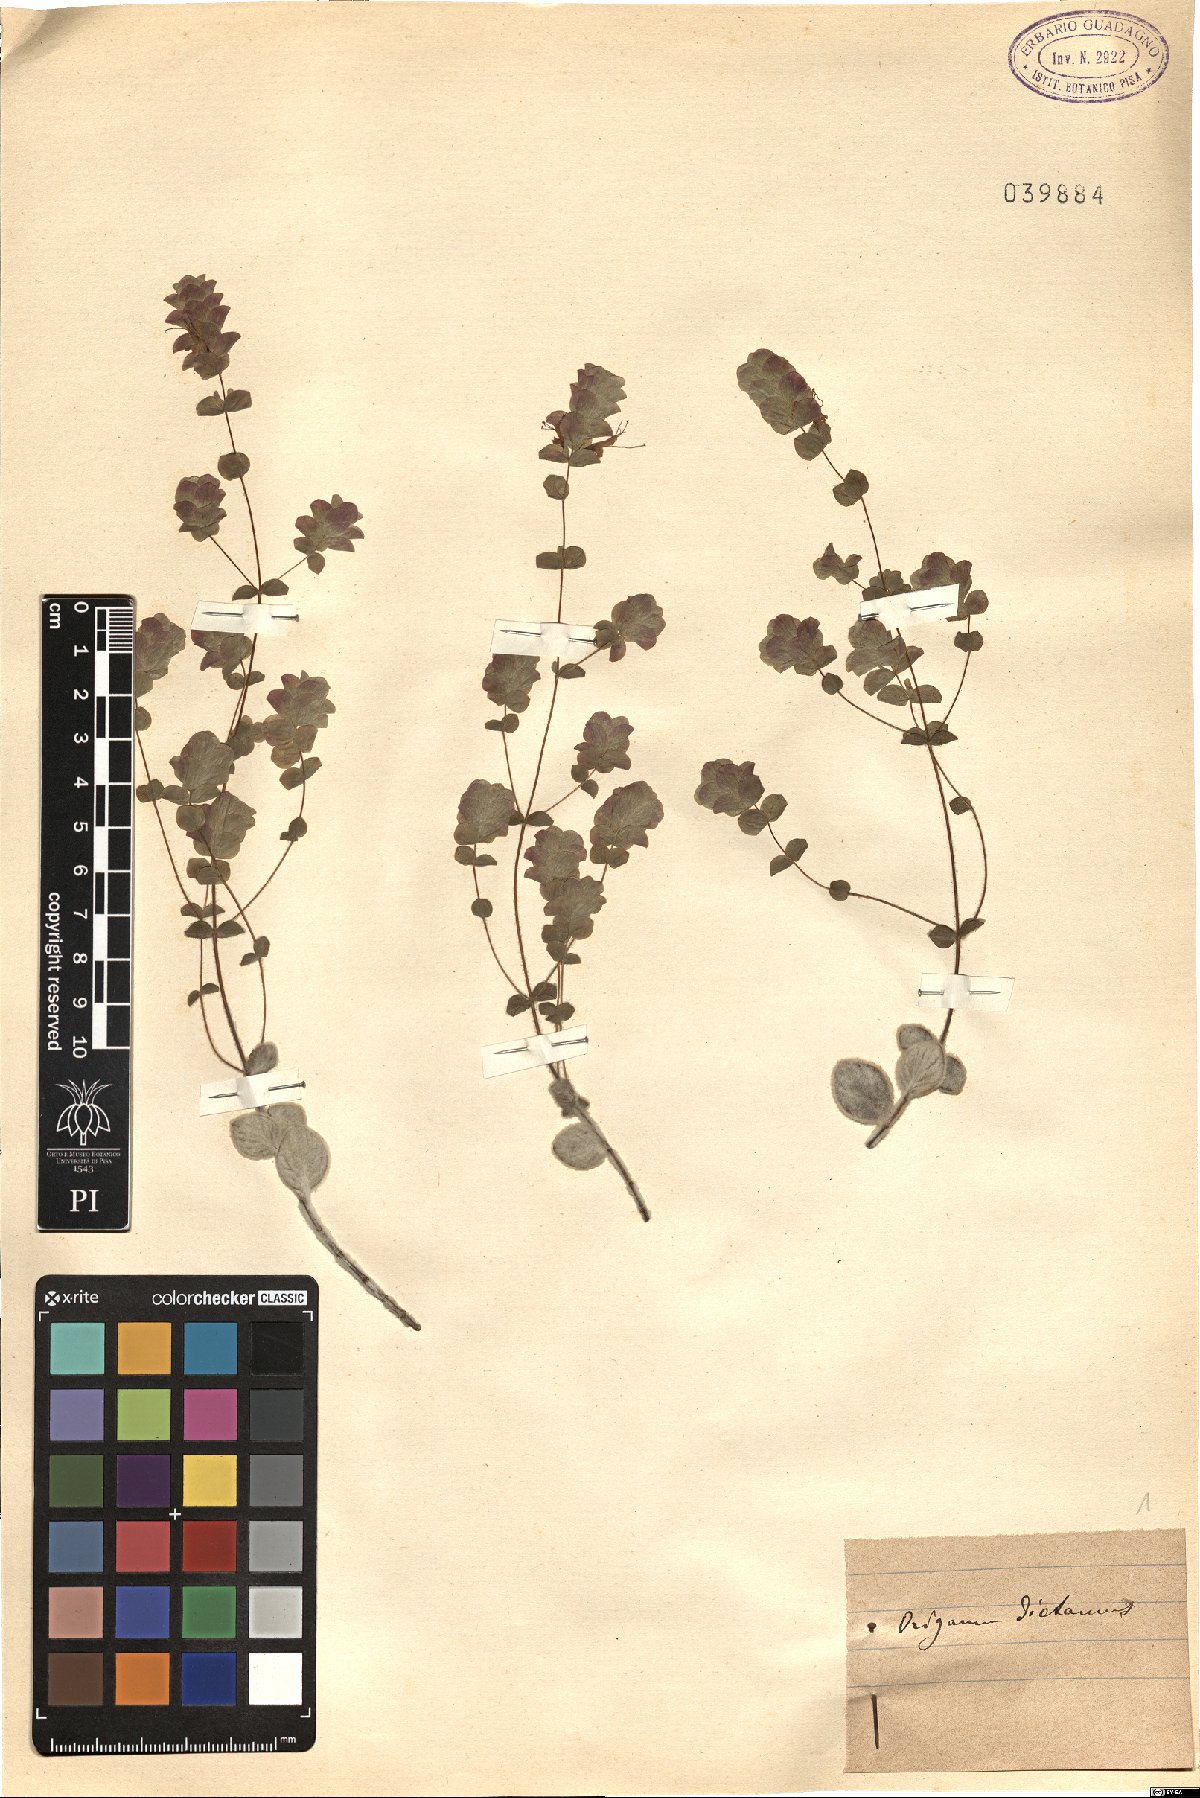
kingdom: Plantae
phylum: Tracheophyta
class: Magnoliopsida
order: Lamiales
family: Lamiaceae
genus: Origanum
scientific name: Origanum dictamnus
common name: Cretan dittany
